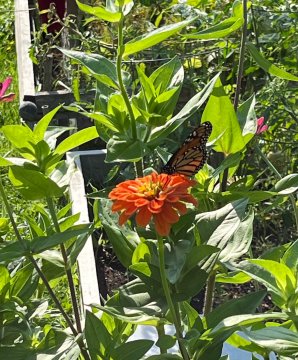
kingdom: Animalia
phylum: Arthropoda
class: Insecta
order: Lepidoptera
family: Nymphalidae
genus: Danaus
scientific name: Danaus plexippus
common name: Monarch
